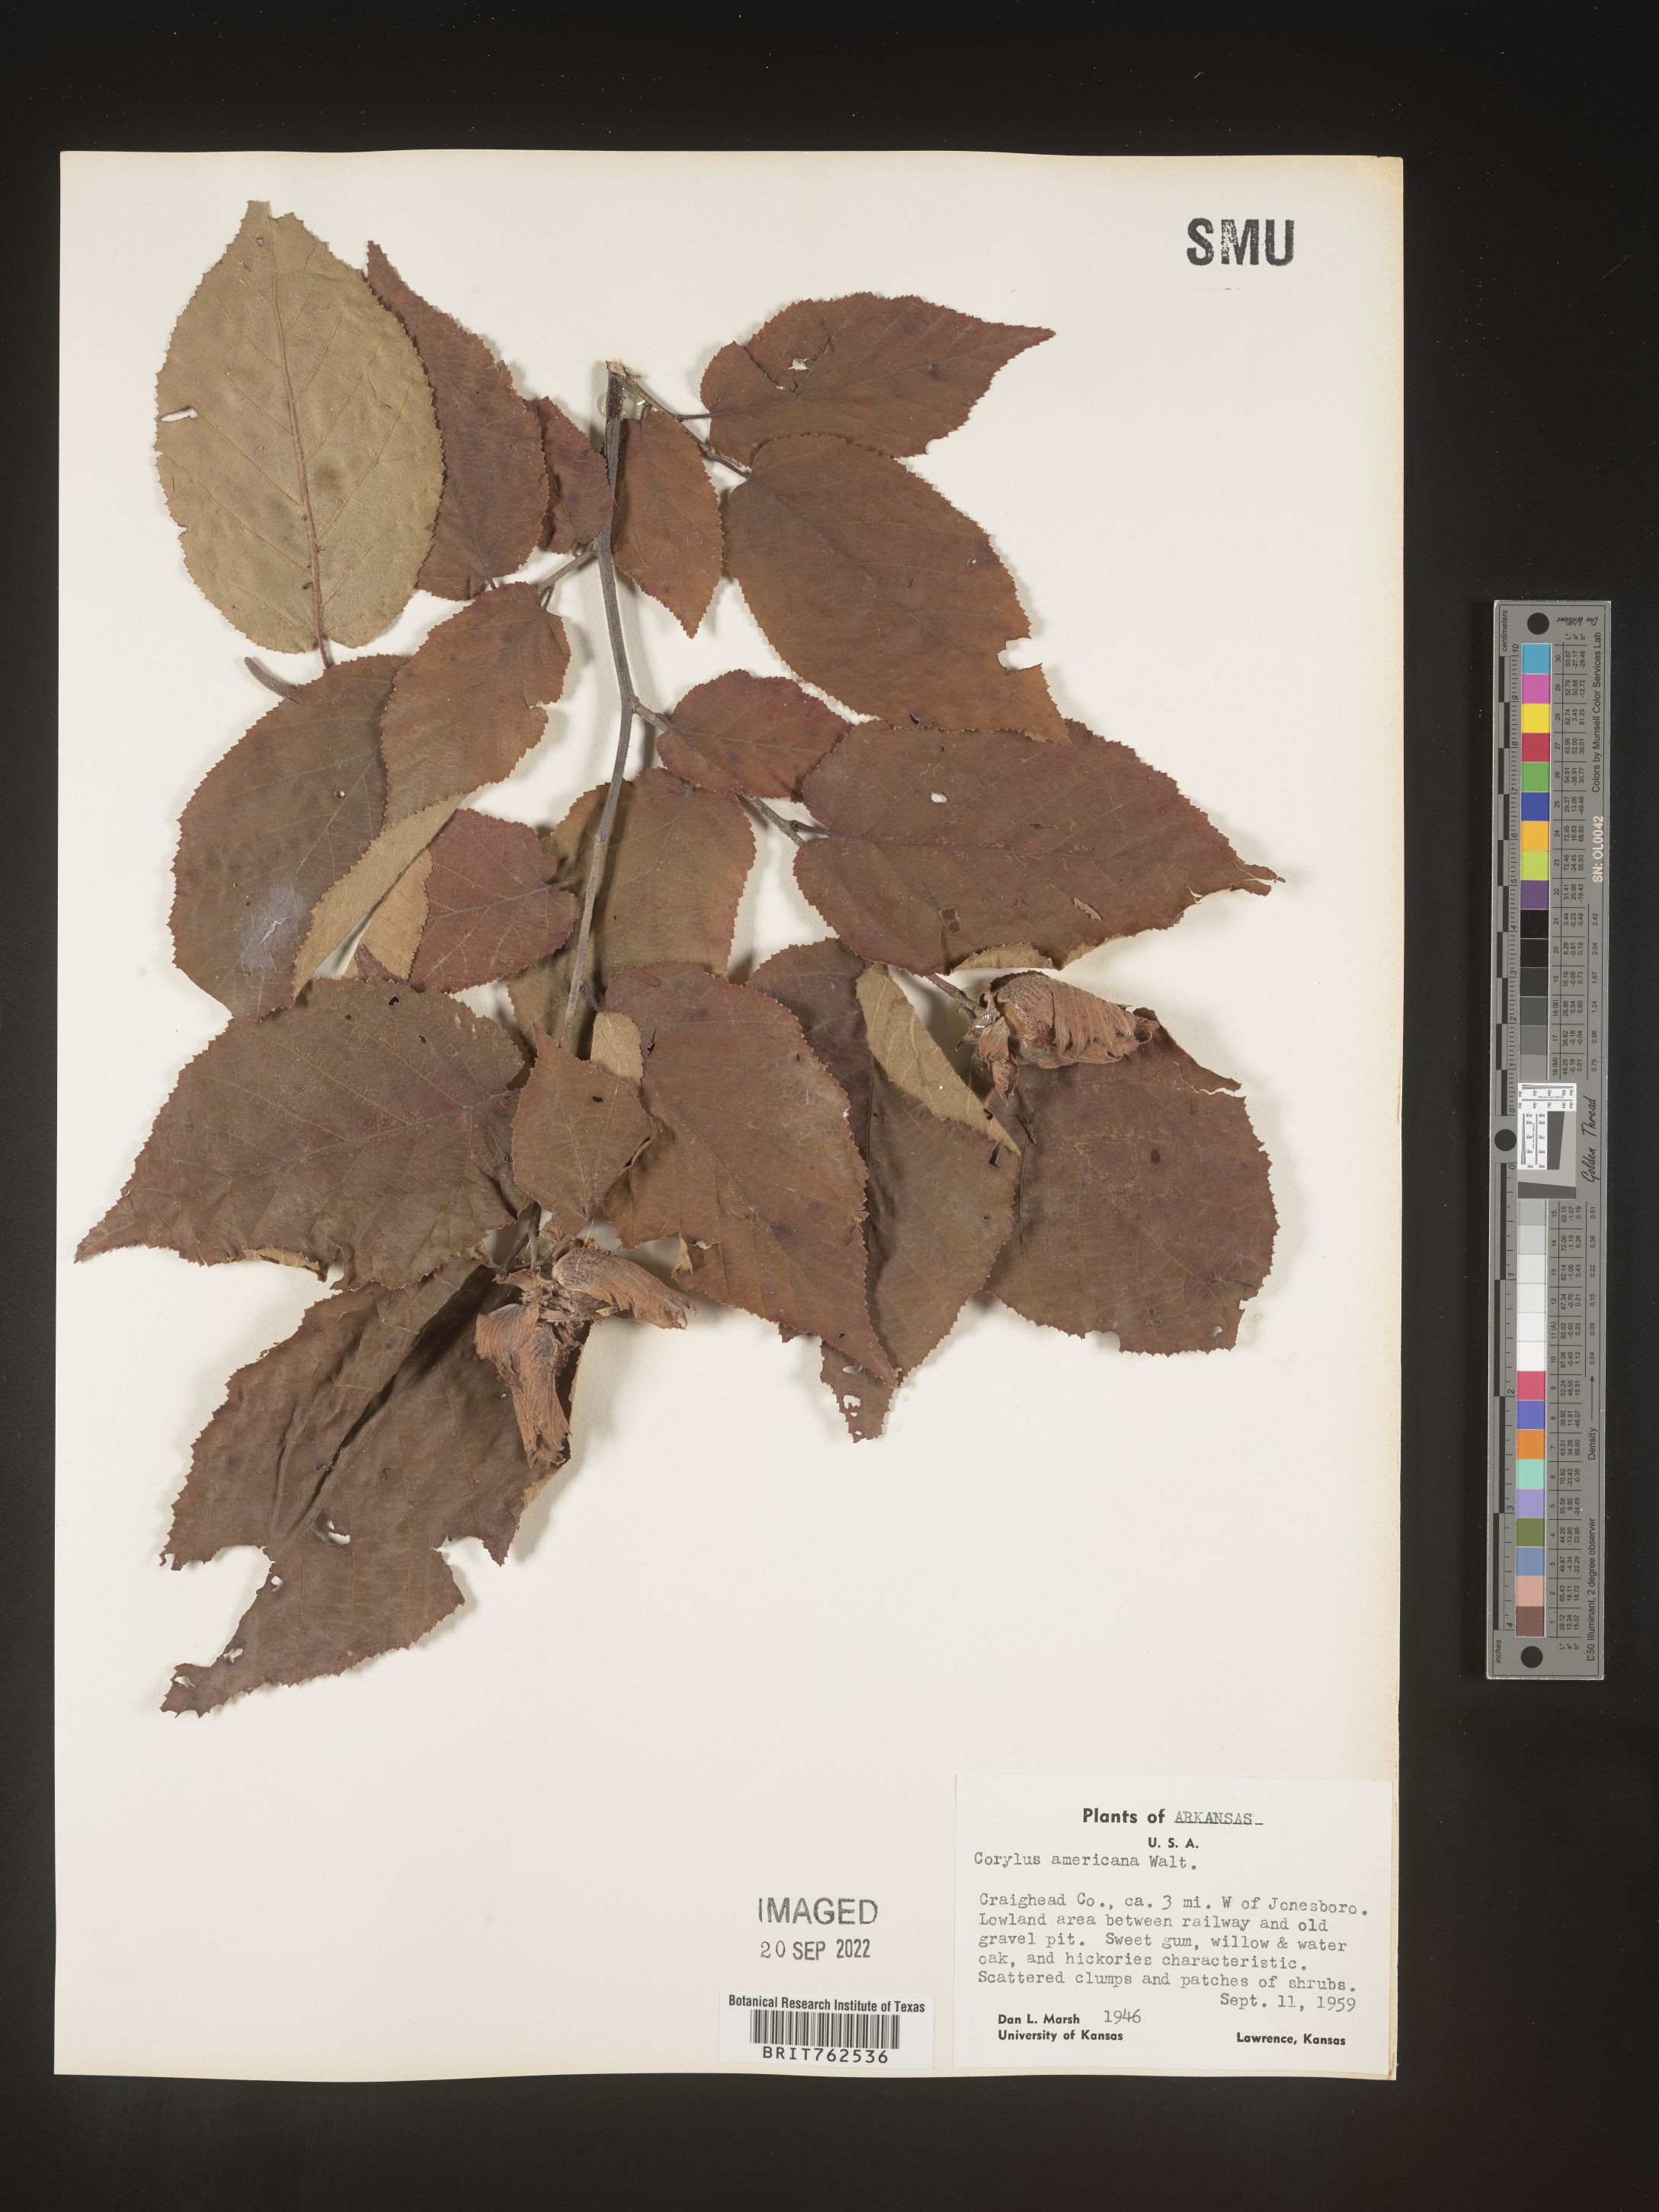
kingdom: Plantae
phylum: Tracheophyta
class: Magnoliopsida
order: Fagales
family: Betulaceae
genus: Corylus
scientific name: Corylus americana
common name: American hazel
